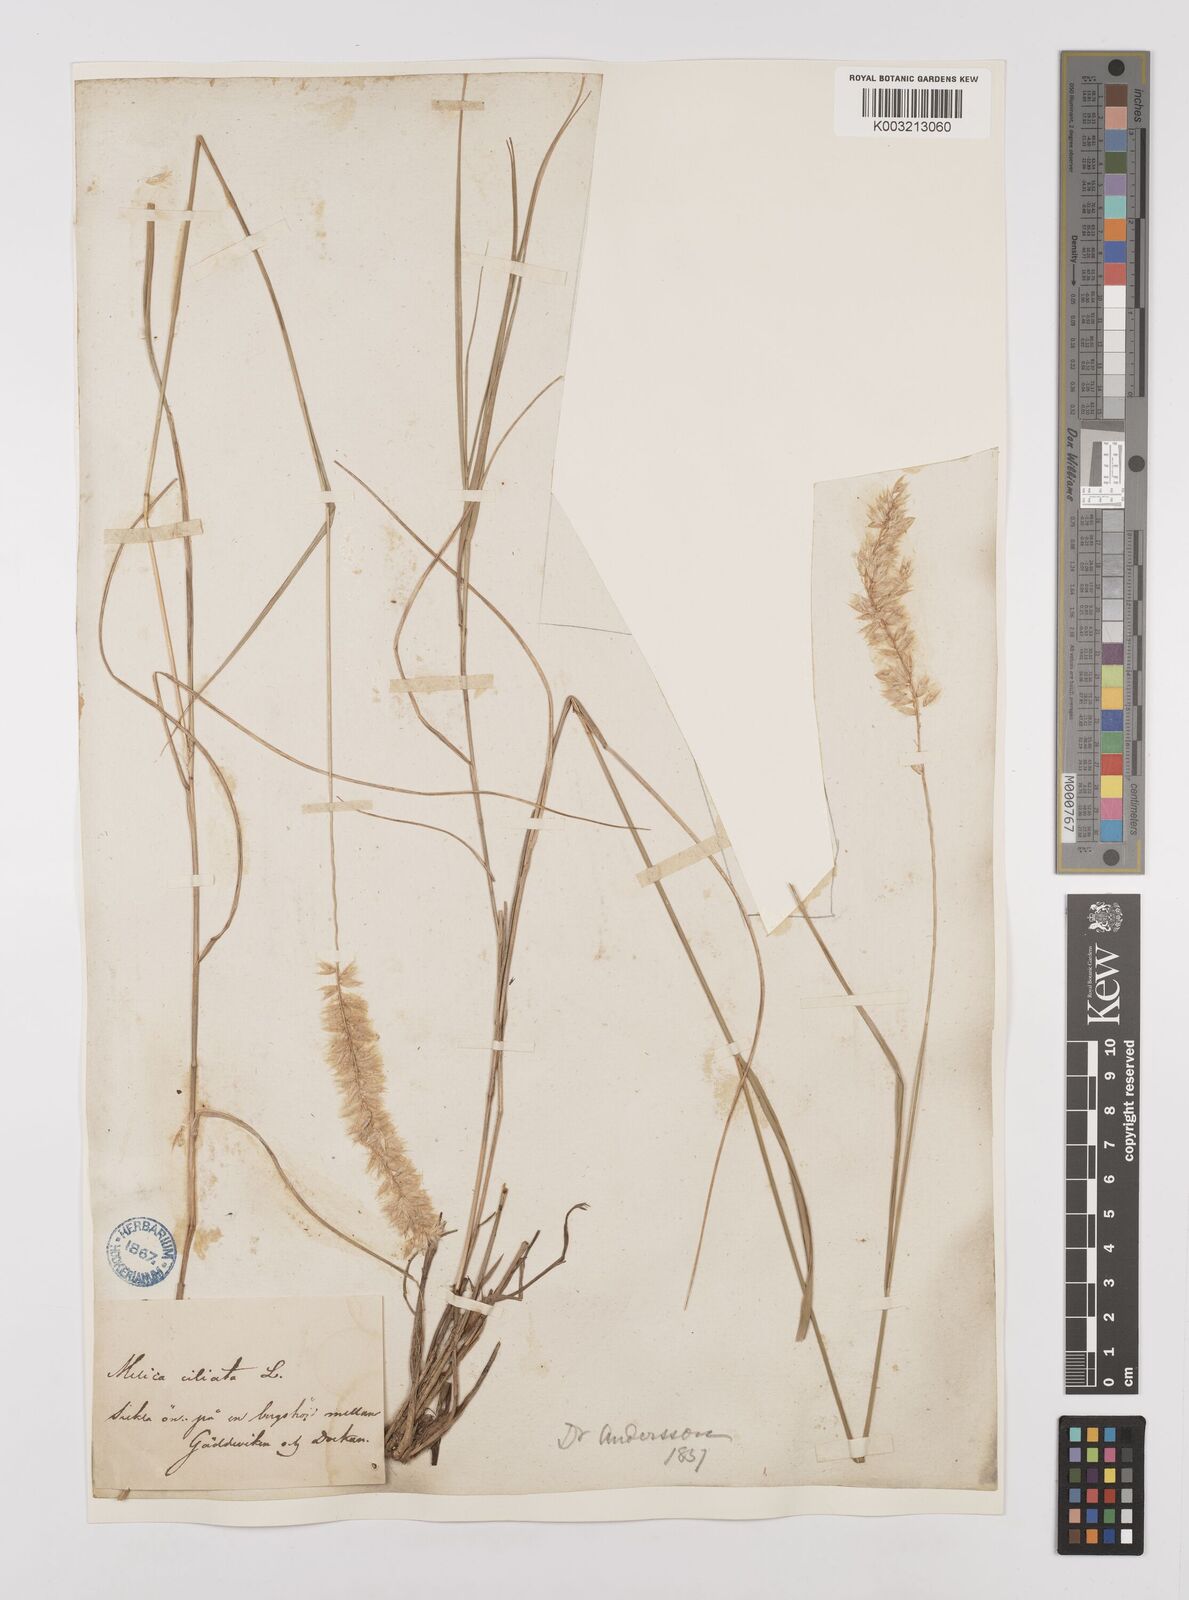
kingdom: Plantae
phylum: Tracheophyta
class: Liliopsida
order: Poales
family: Poaceae
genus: Melica
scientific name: Melica ciliata
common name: Hairy melicgrass
